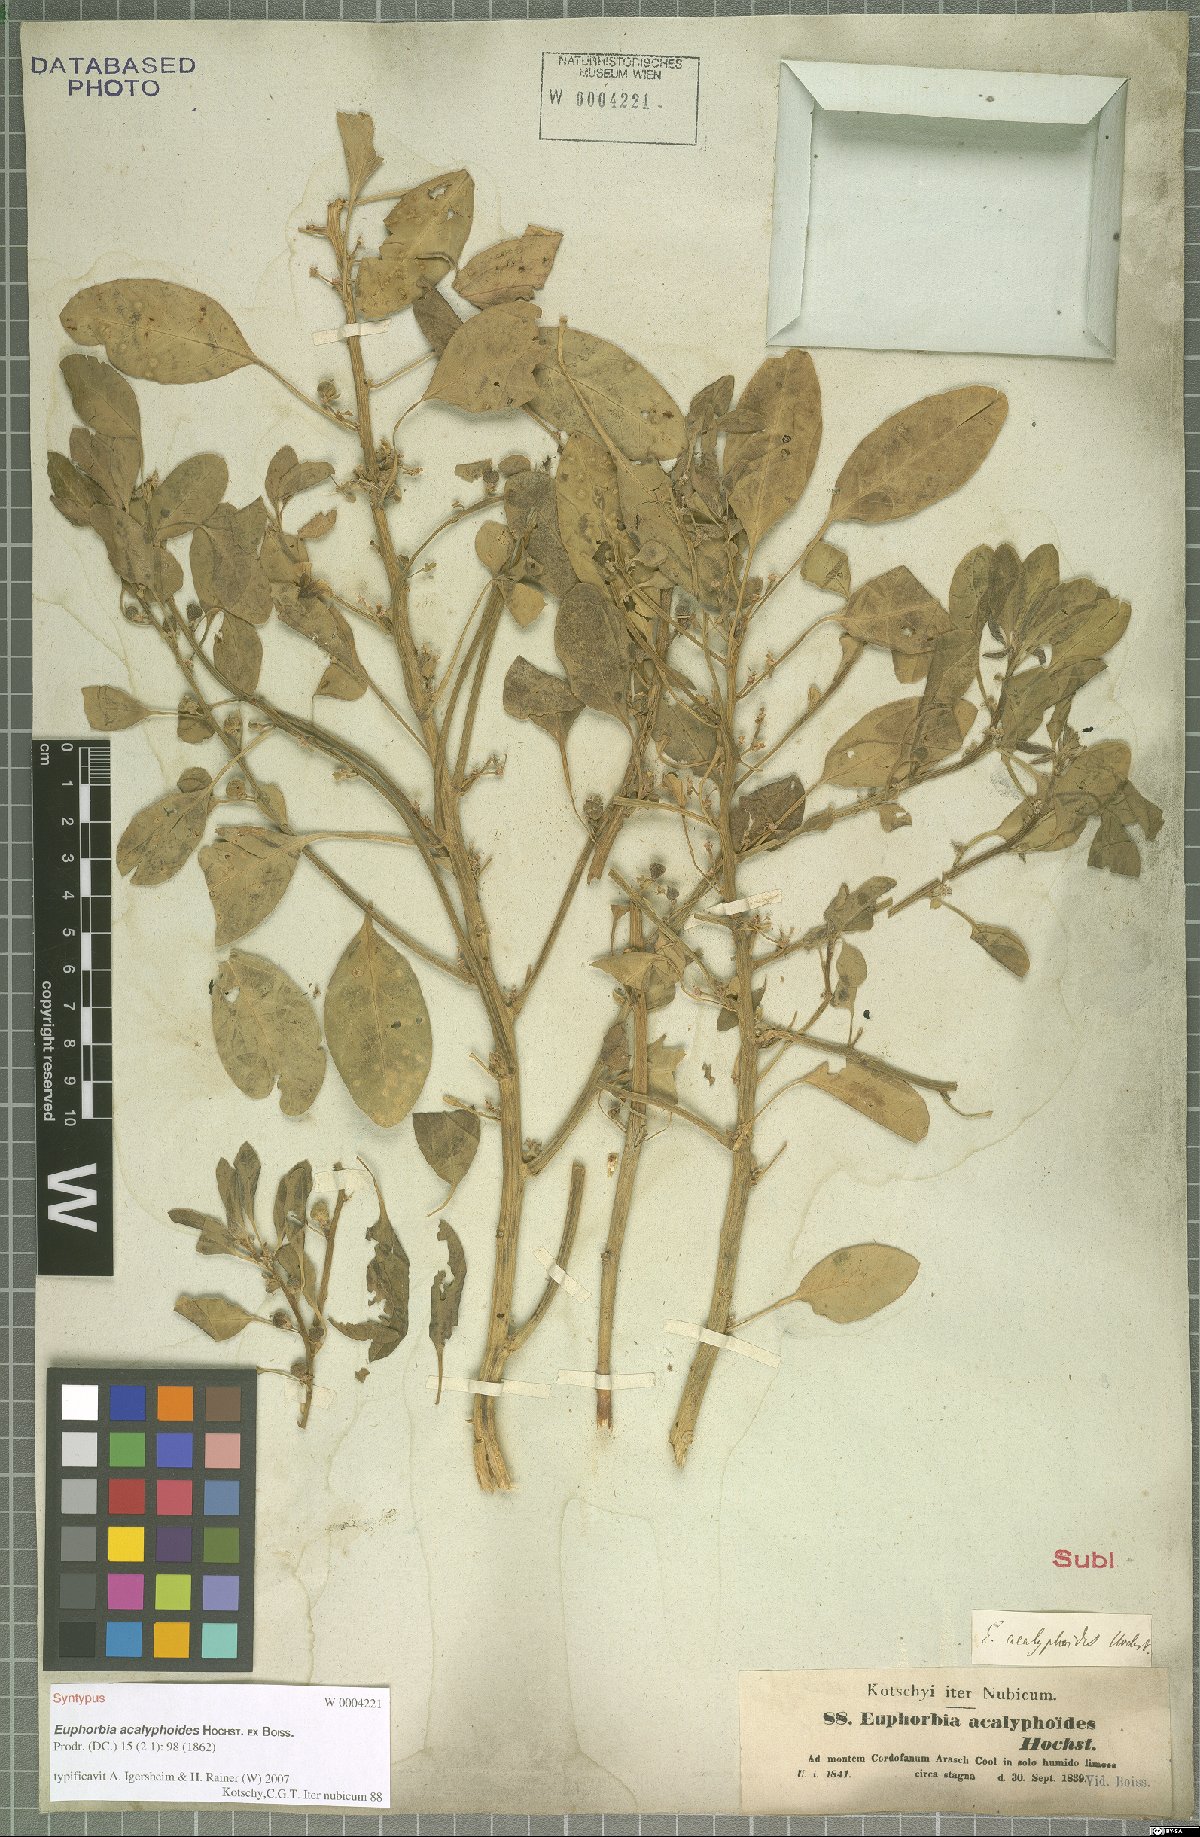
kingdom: Plantae
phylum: Tracheophyta
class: Magnoliopsida
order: Malpighiales
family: Euphorbiaceae
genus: Euphorbia
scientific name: Euphorbia acalyphoides
